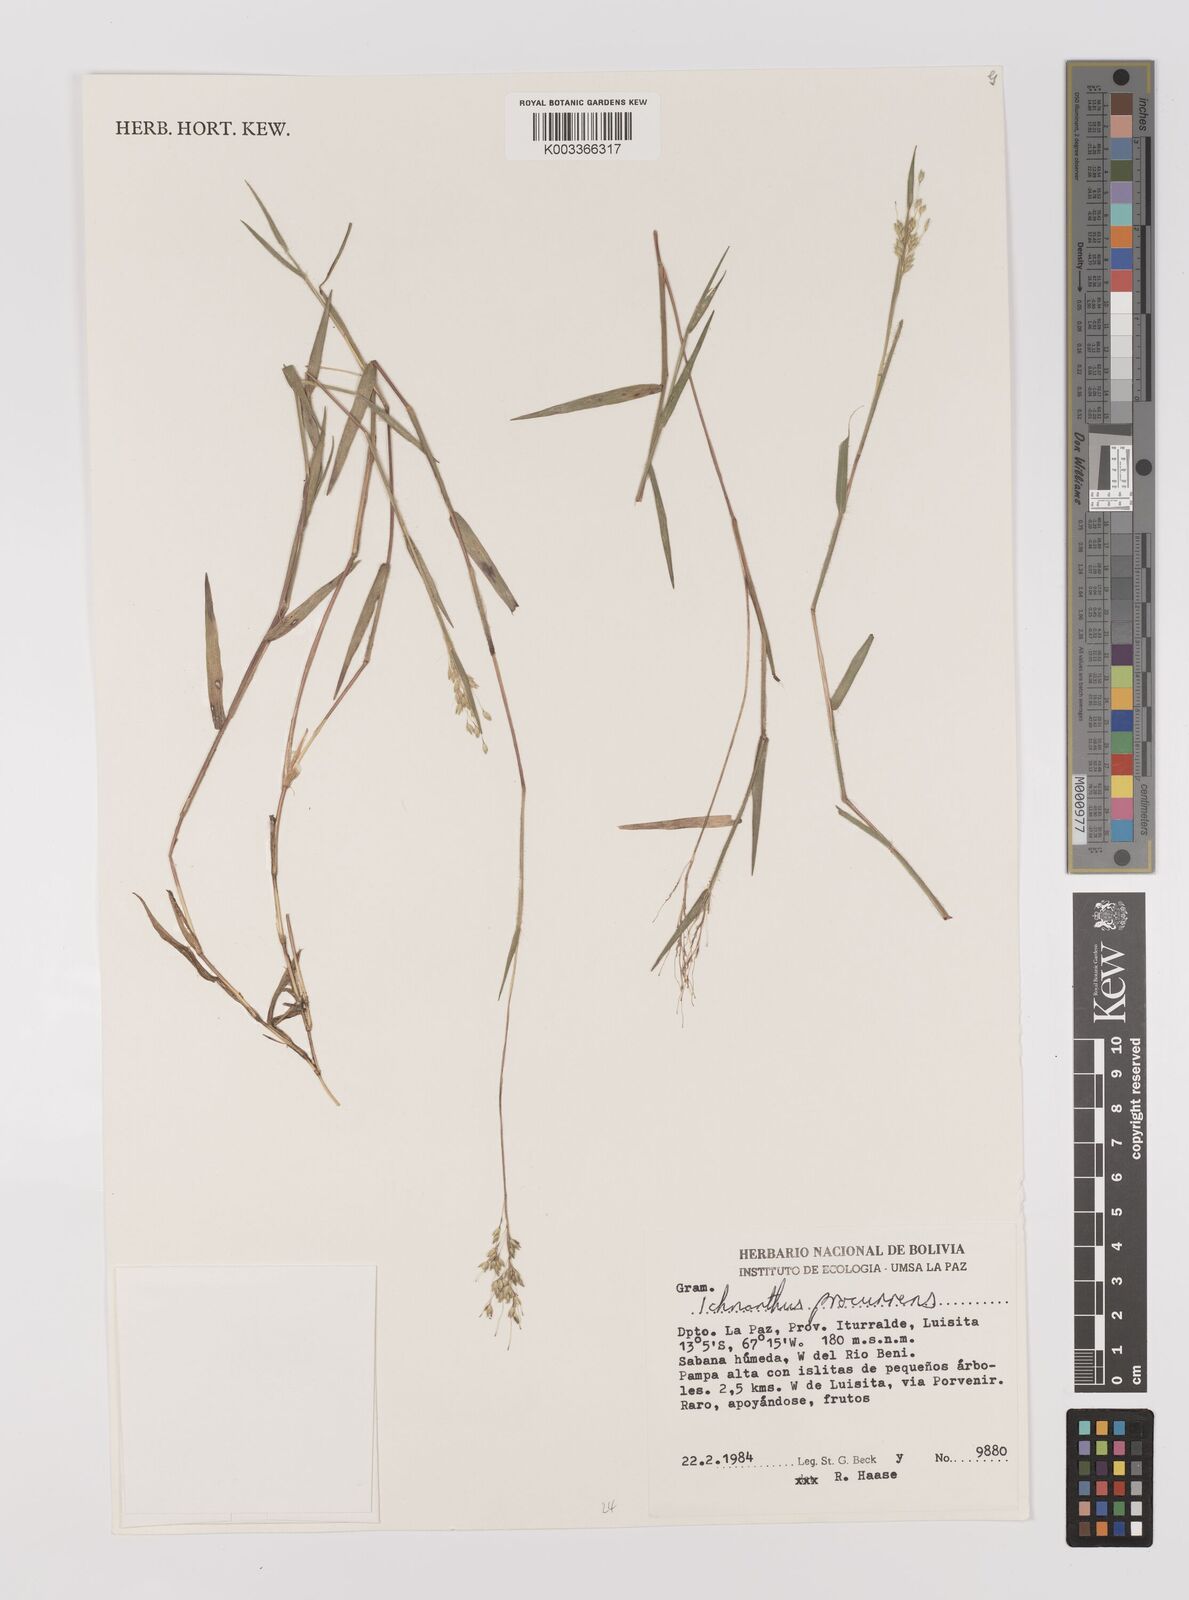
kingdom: Plantae
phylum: Tracheophyta
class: Liliopsida
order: Poales
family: Poaceae
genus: Oedochloa
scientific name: Oedochloa procurrens
